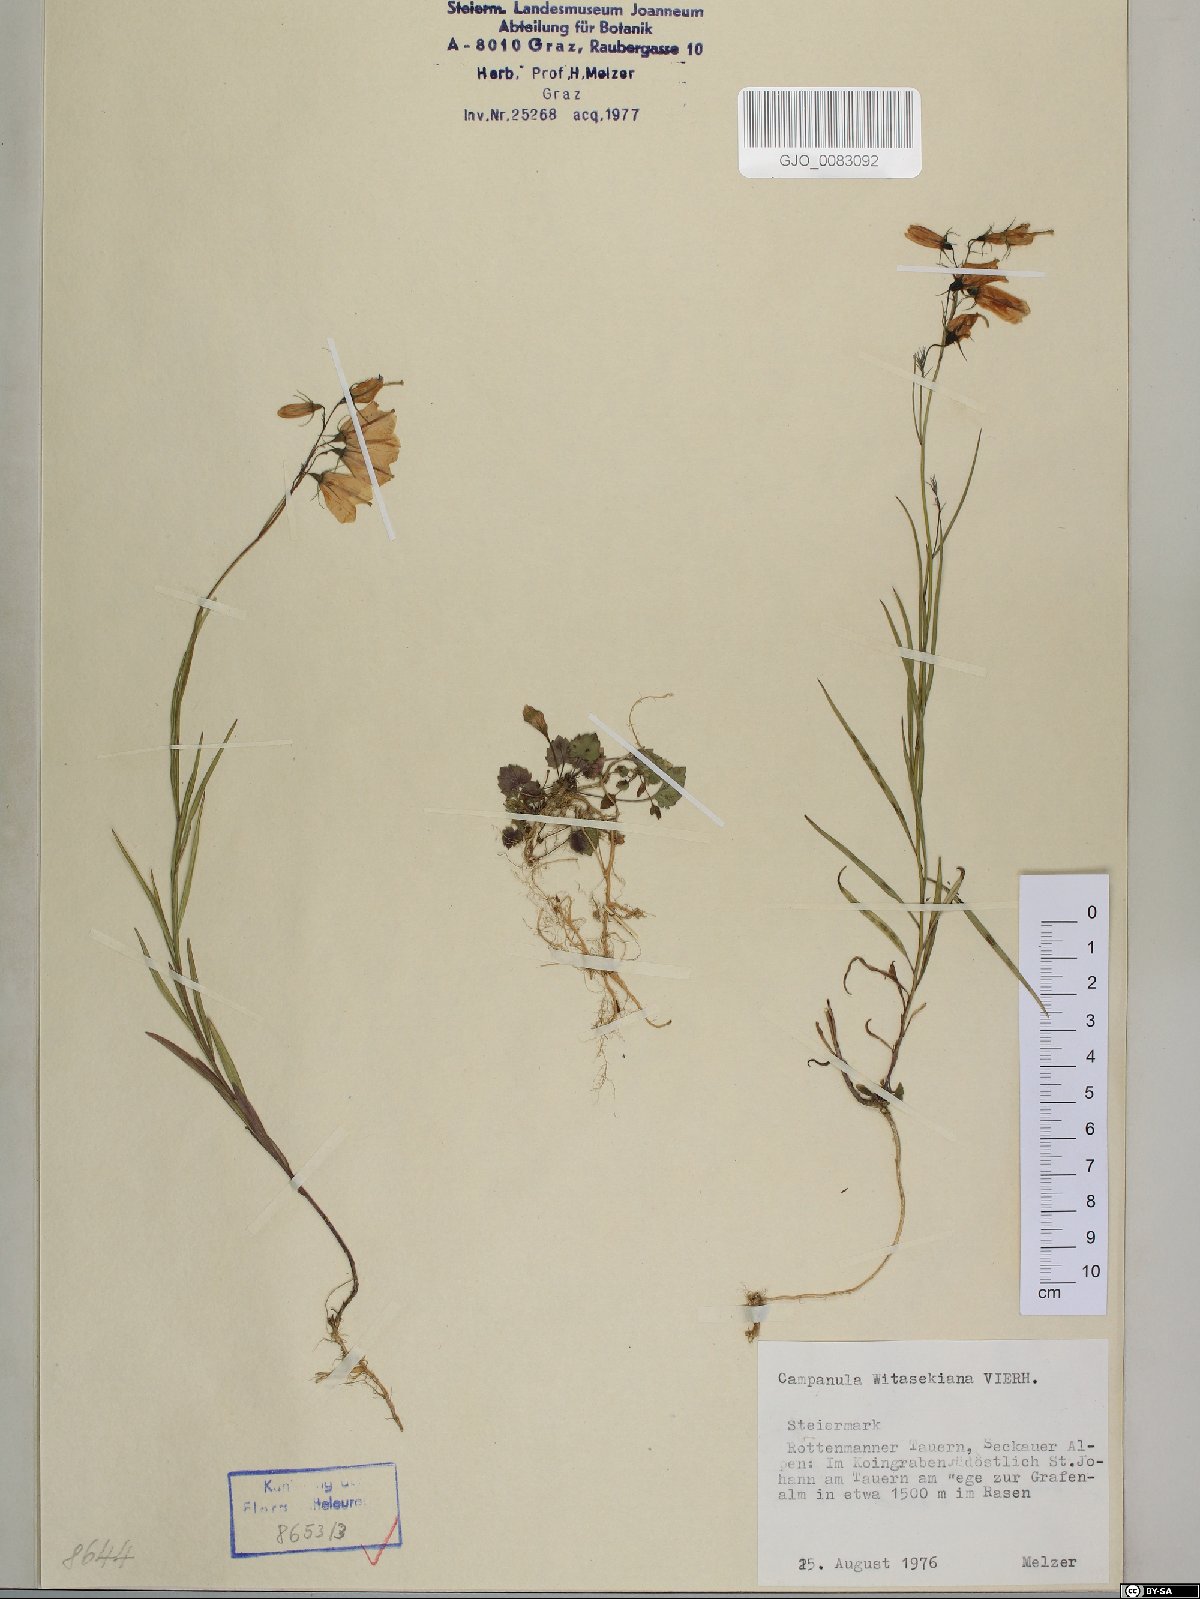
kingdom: Plantae
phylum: Tracheophyta
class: Magnoliopsida
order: Asterales
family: Campanulaceae
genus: Campanula
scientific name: Campanula witasekiana
